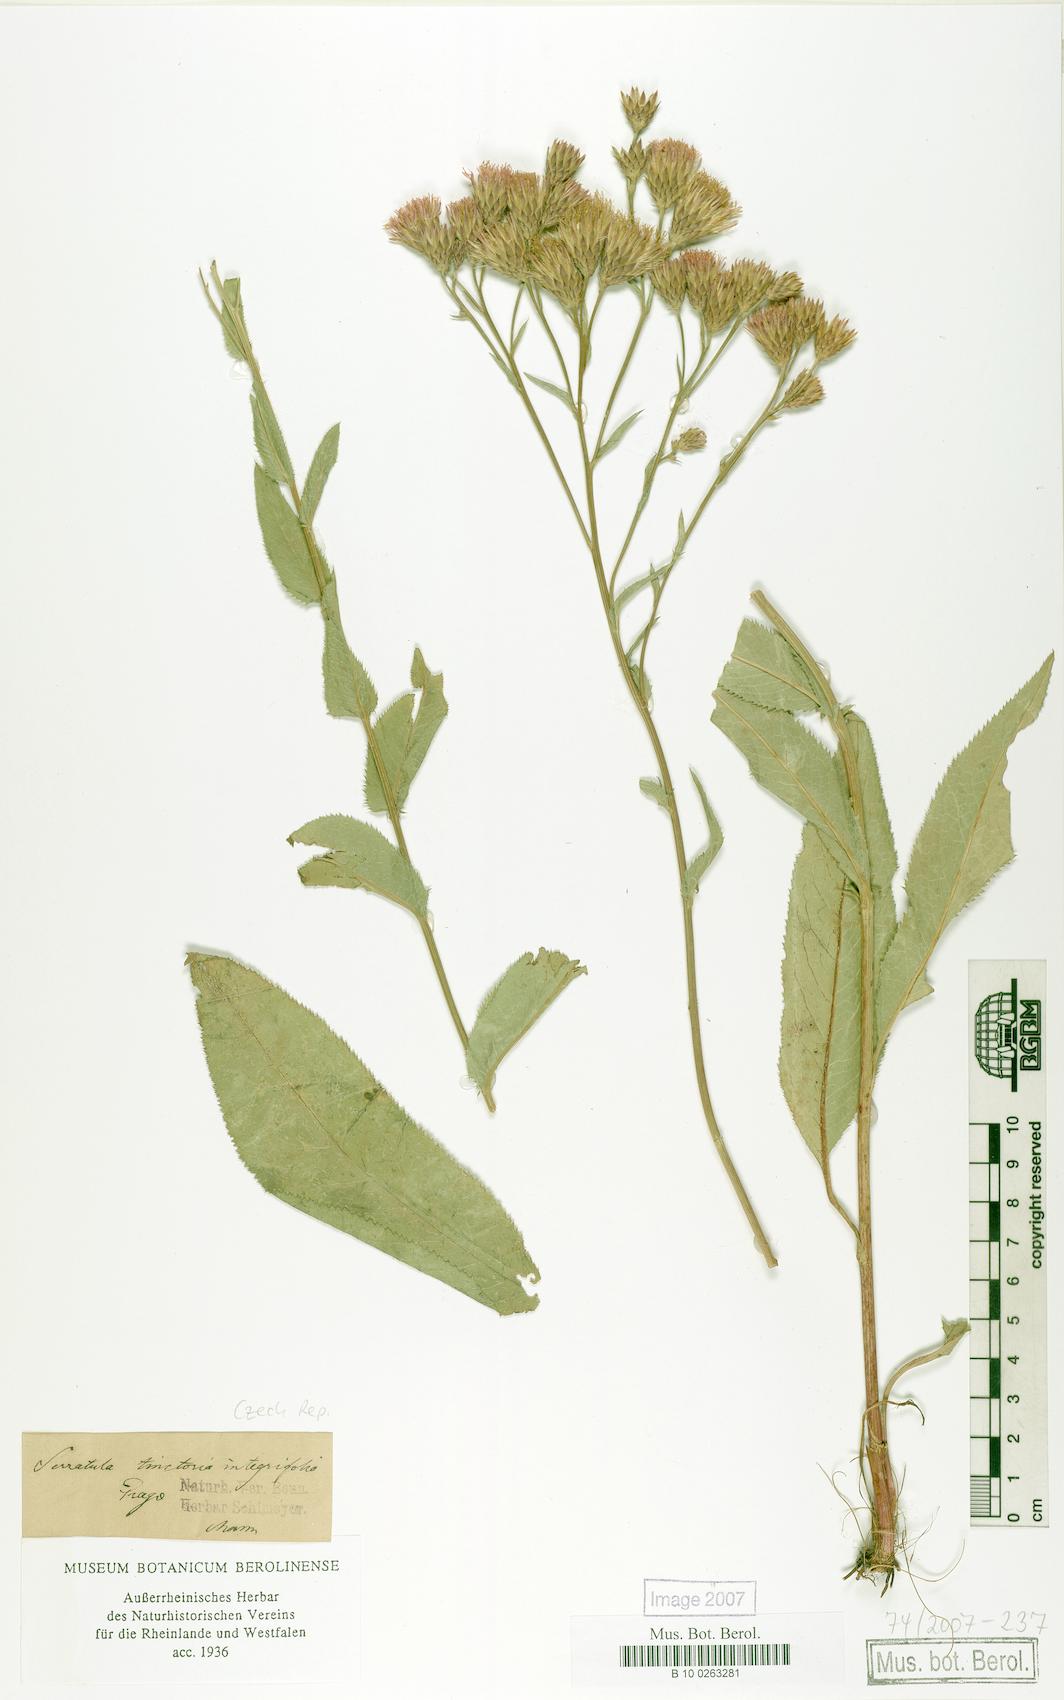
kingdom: Plantae
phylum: Tracheophyta
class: Magnoliopsida
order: Asterales
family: Asteraceae
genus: Serratula
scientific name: Serratula tinctoria
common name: Saw-wort
